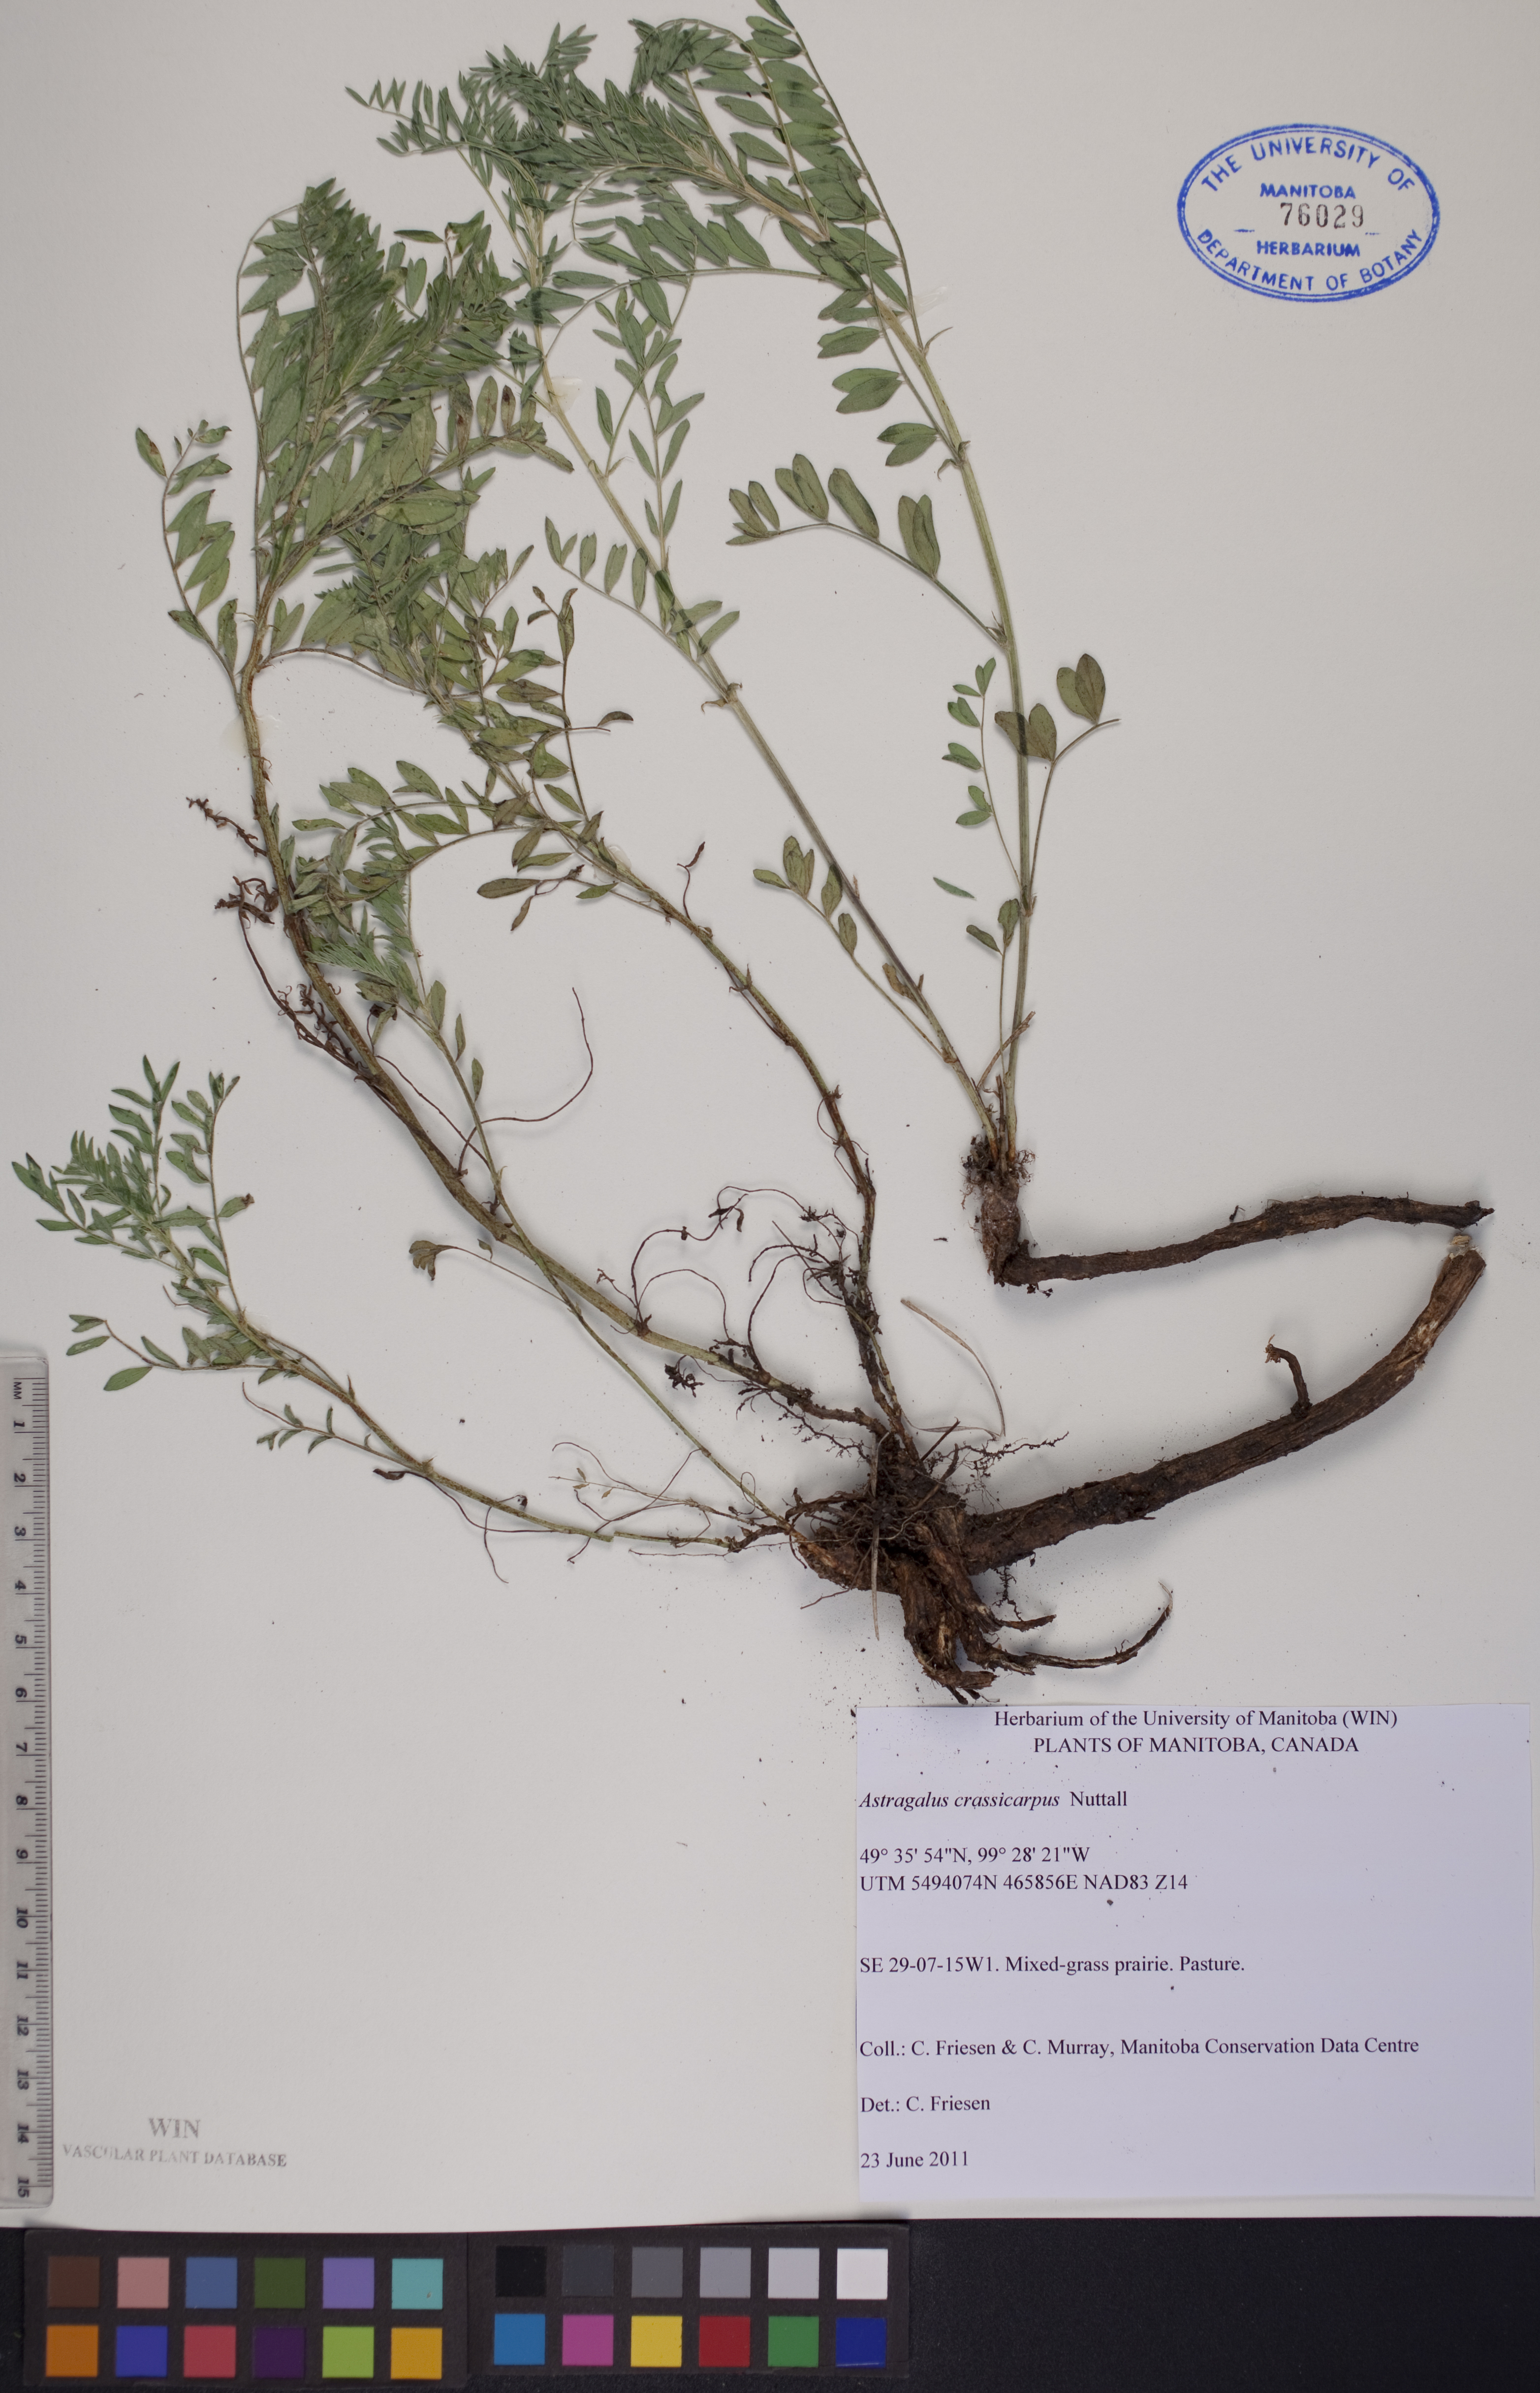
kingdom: Plantae
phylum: Tracheophyta
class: Magnoliopsida
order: Fabales
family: Fabaceae
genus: Astragalus
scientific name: Astragalus crassicarpus
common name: Ground-plum milk-vetch
